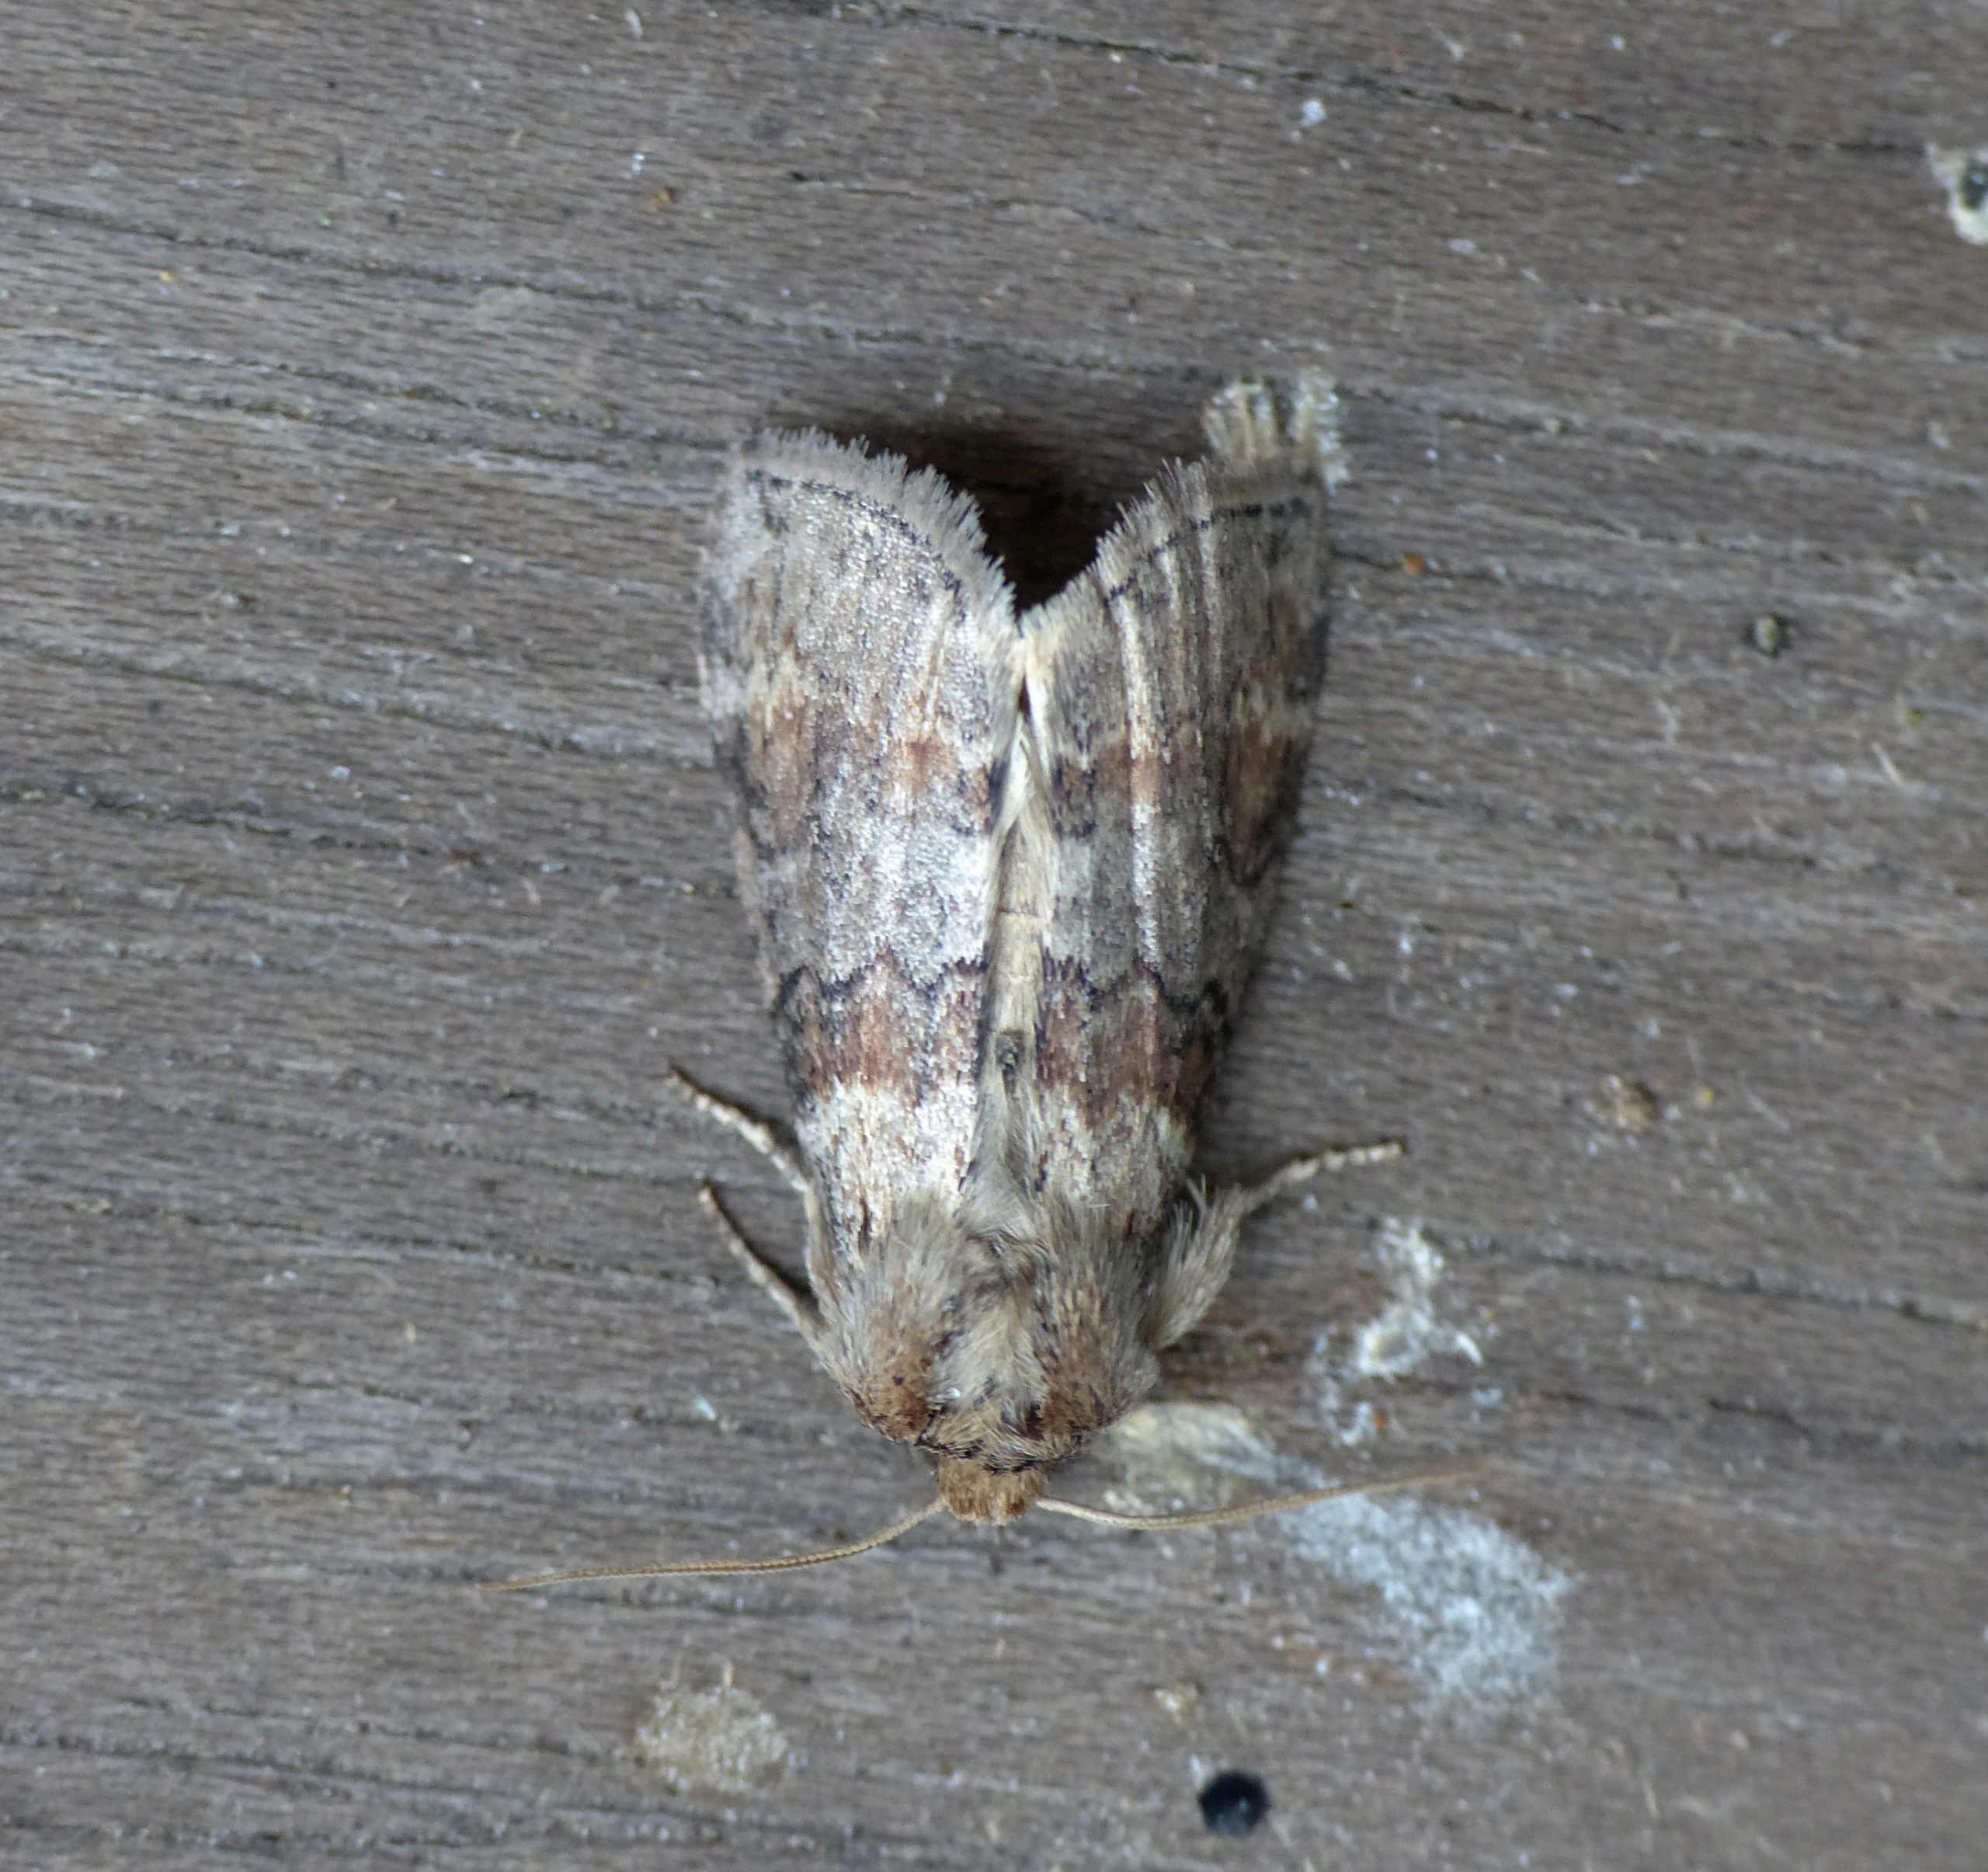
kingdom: Animalia
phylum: Arthropoda
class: Insecta
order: Lepidoptera
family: Drepanidae
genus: Cymatophorina
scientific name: Cymatophorina diluta
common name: Brunbæltet uglespinder
